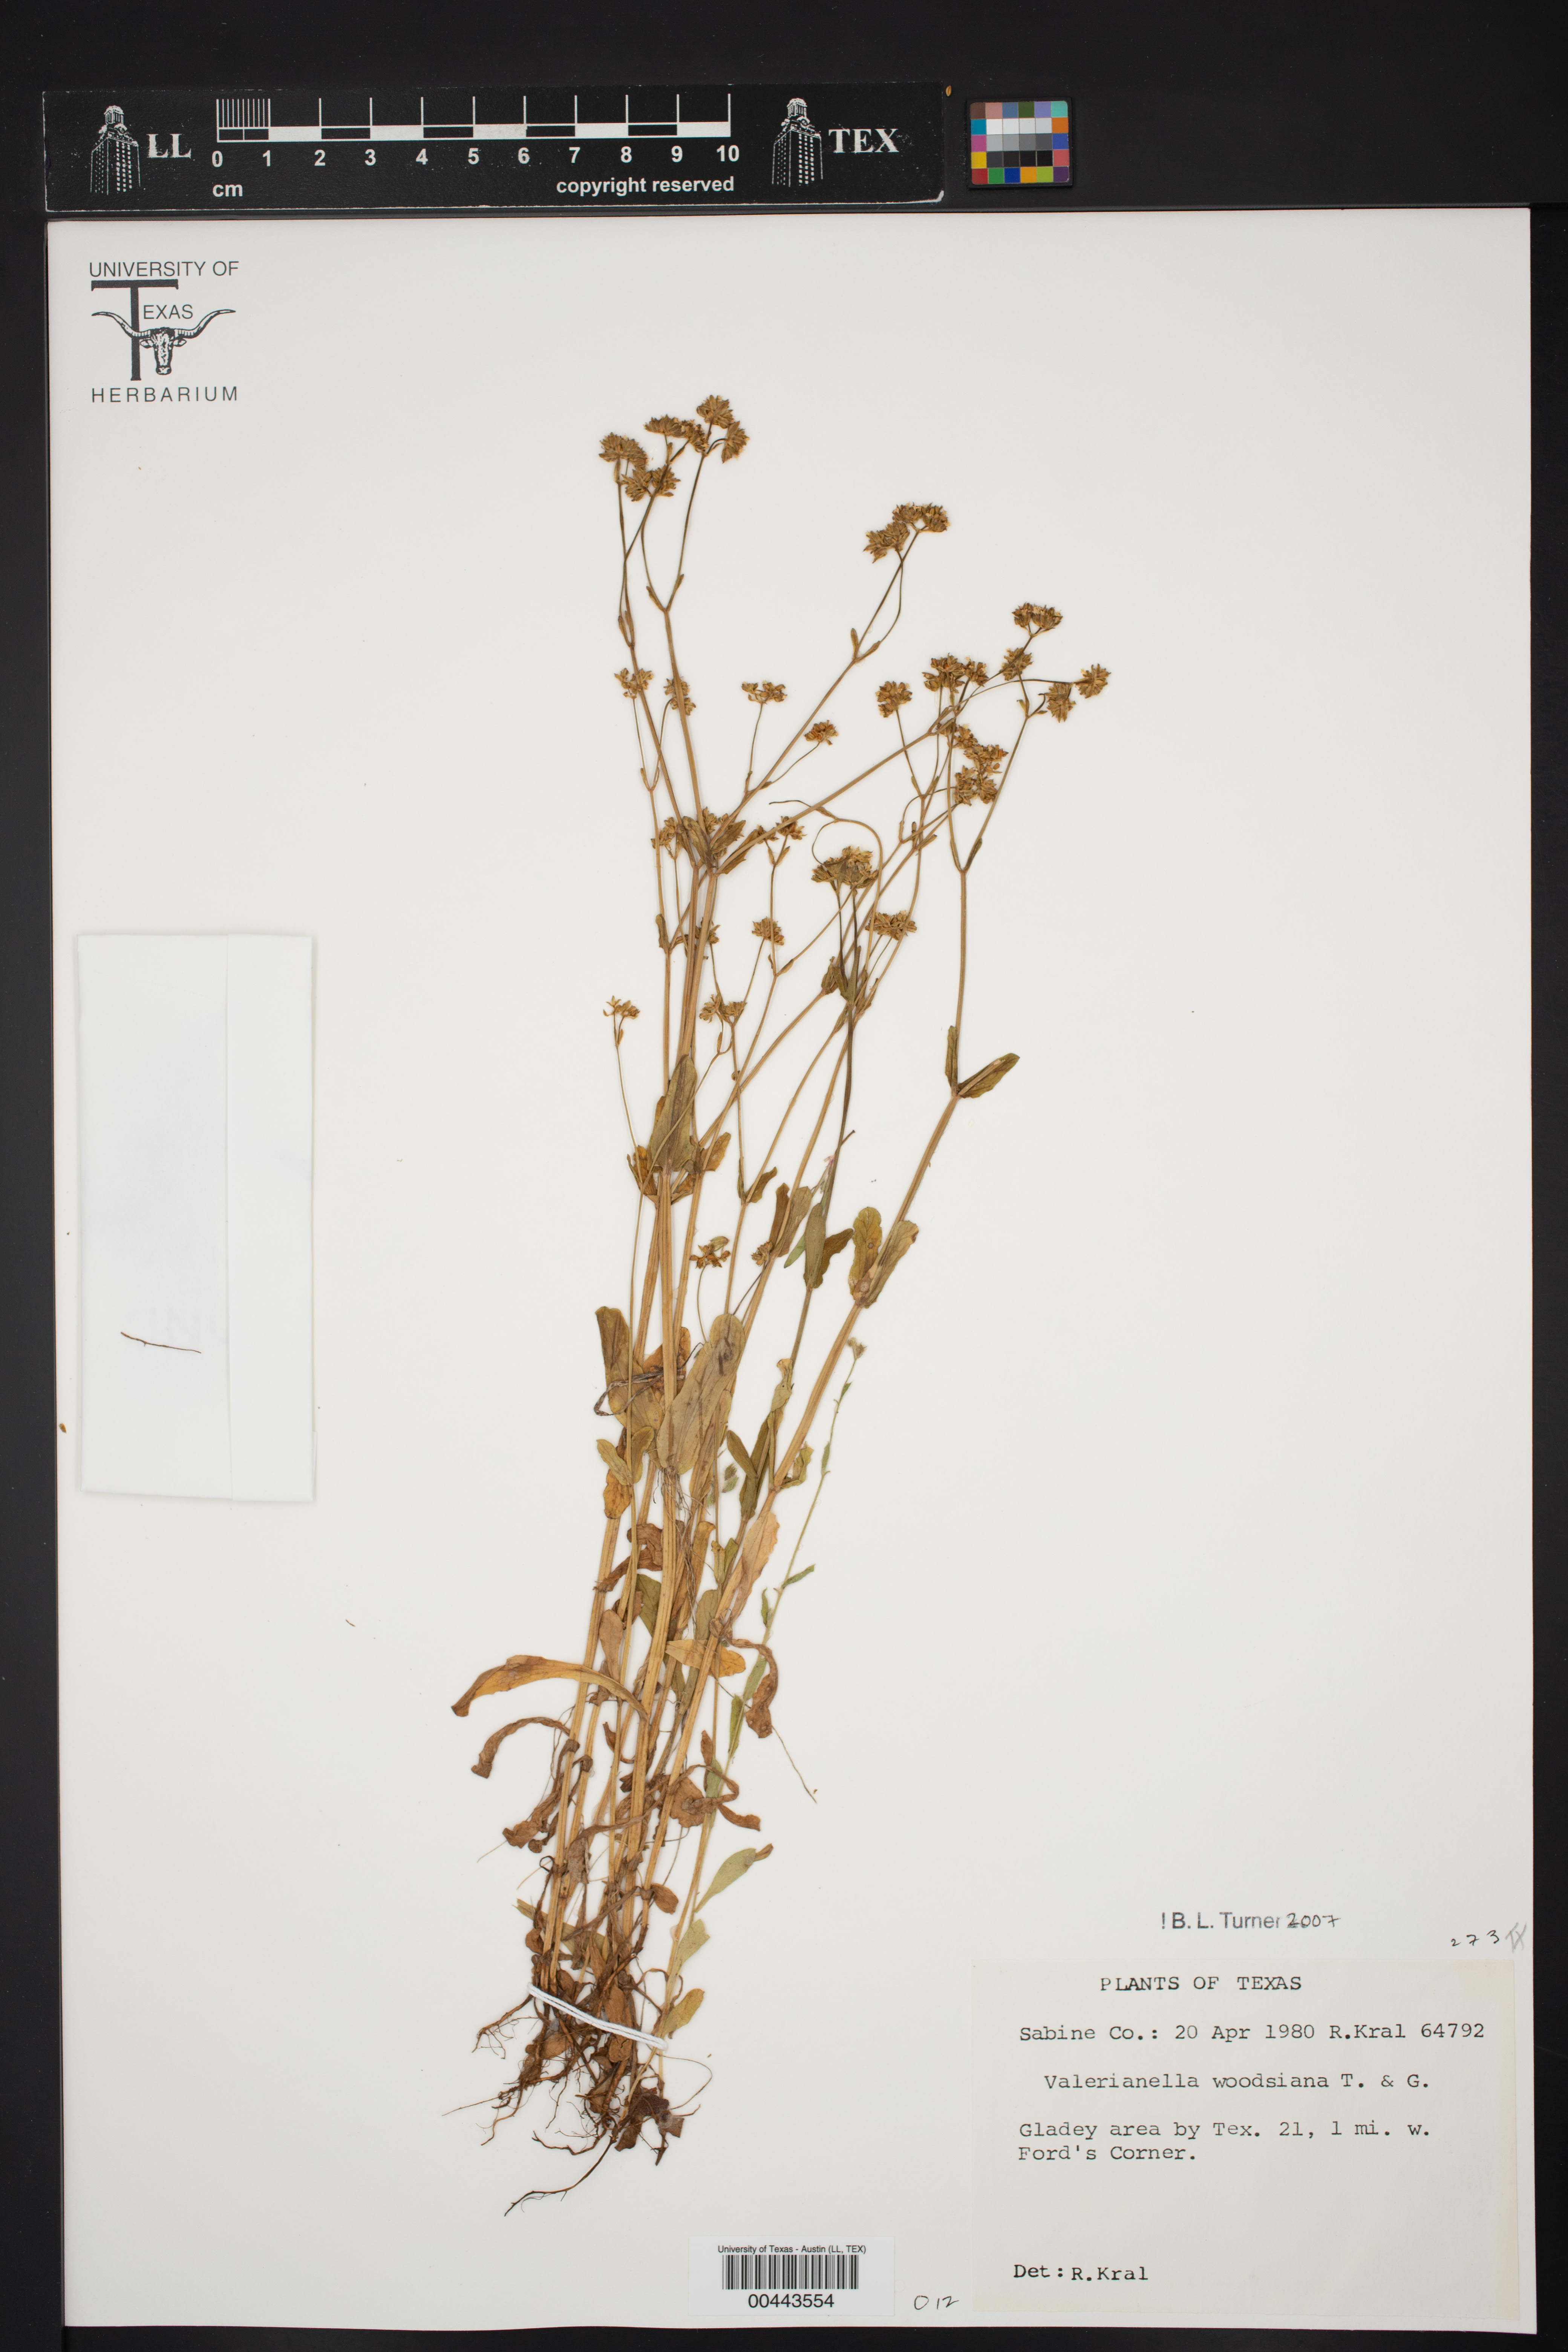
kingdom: Plantae
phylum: Tracheophyta
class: Magnoliopsida
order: Dipsacales
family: Caprifoliaceae
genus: Valerianella
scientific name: Valerianella radiata
